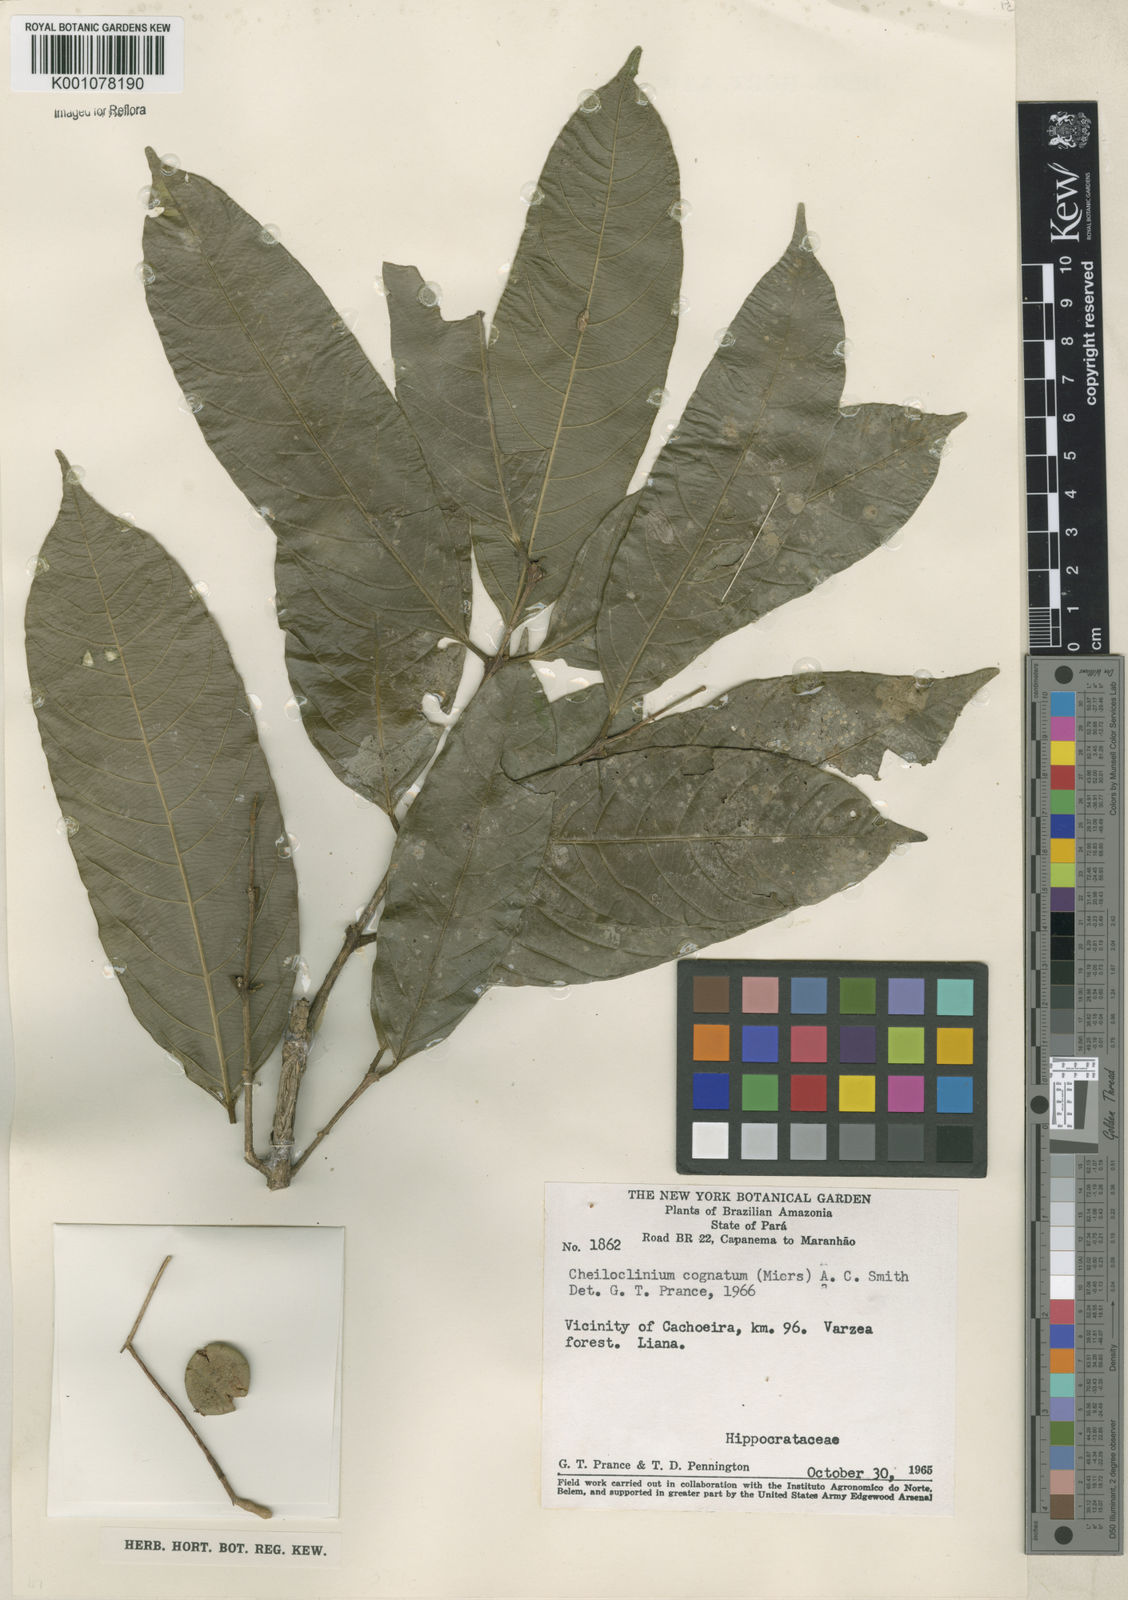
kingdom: Plantae
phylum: Tracheophyta
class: Magnoliopsida
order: Celastrales
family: Celastraceae
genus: Cheiloclinium
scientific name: Cheiloclinium cognatum
